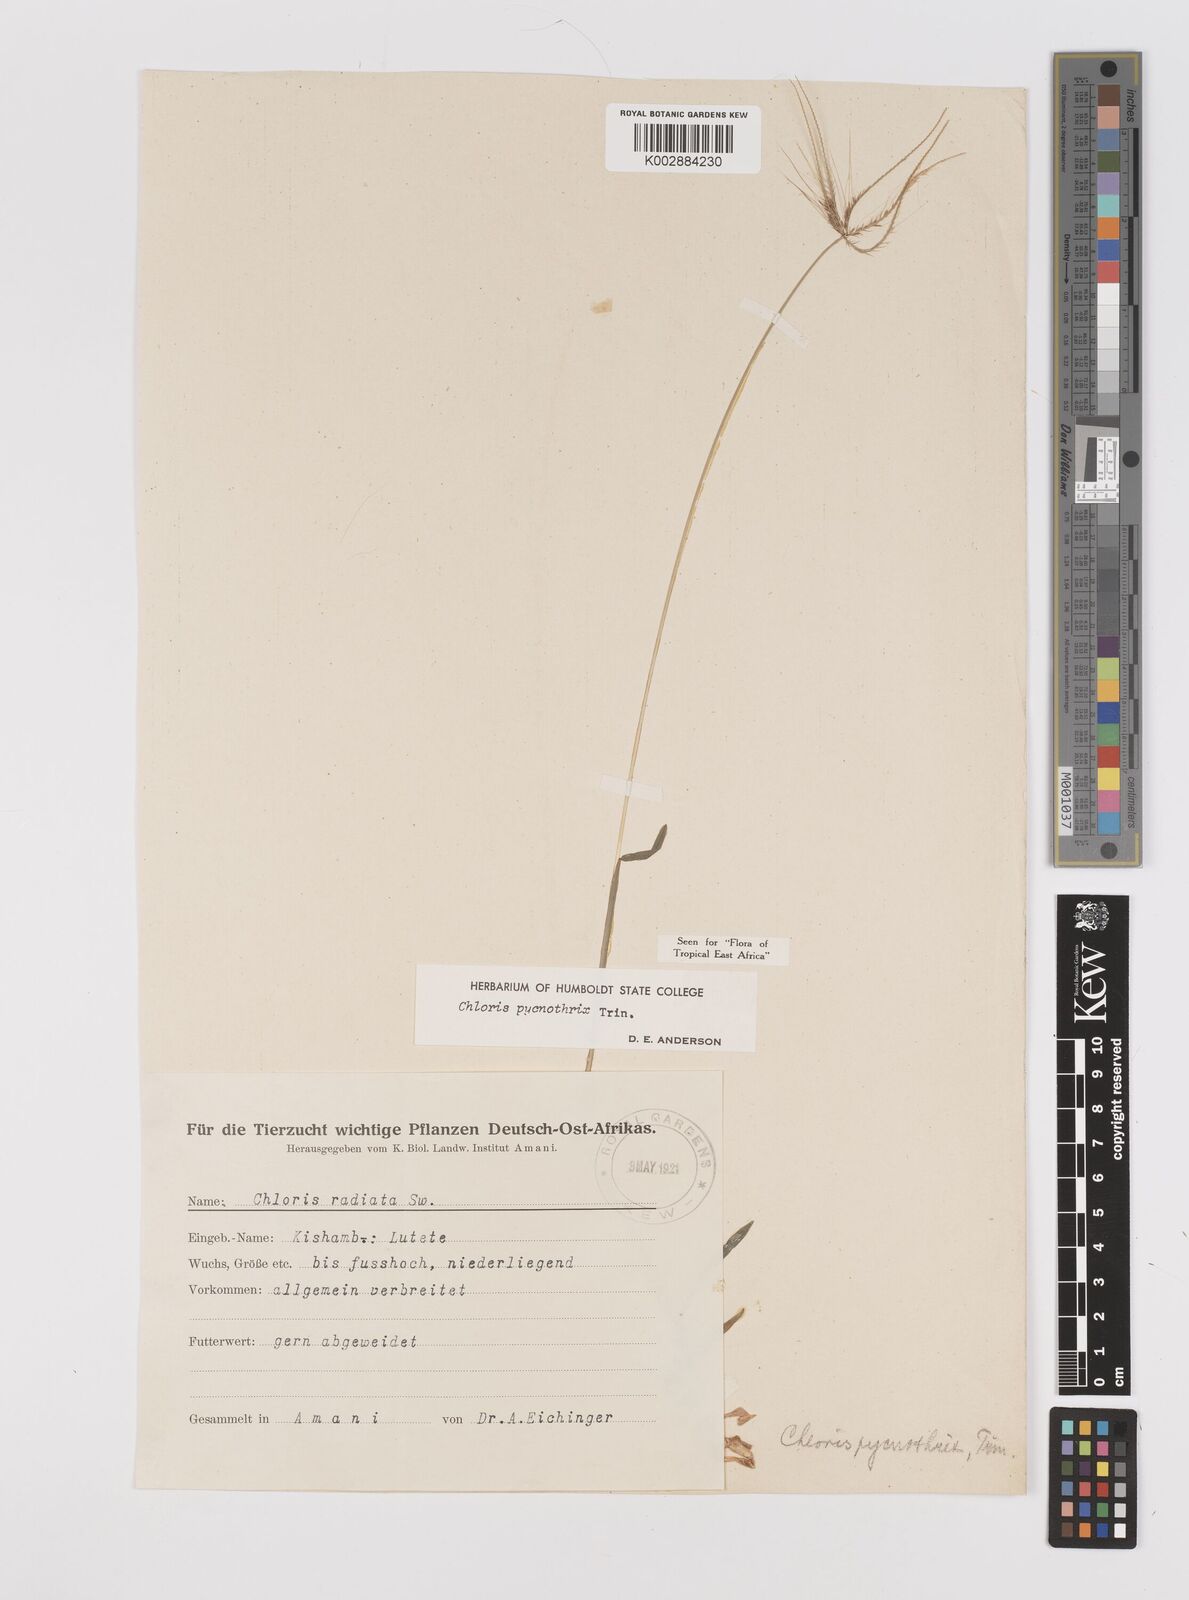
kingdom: Plantae
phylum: Tracheophyta
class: Liliopsida
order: Poales
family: Poaceae
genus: Chloris
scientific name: Chloris pycnothrix
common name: Spiderweb chloris
